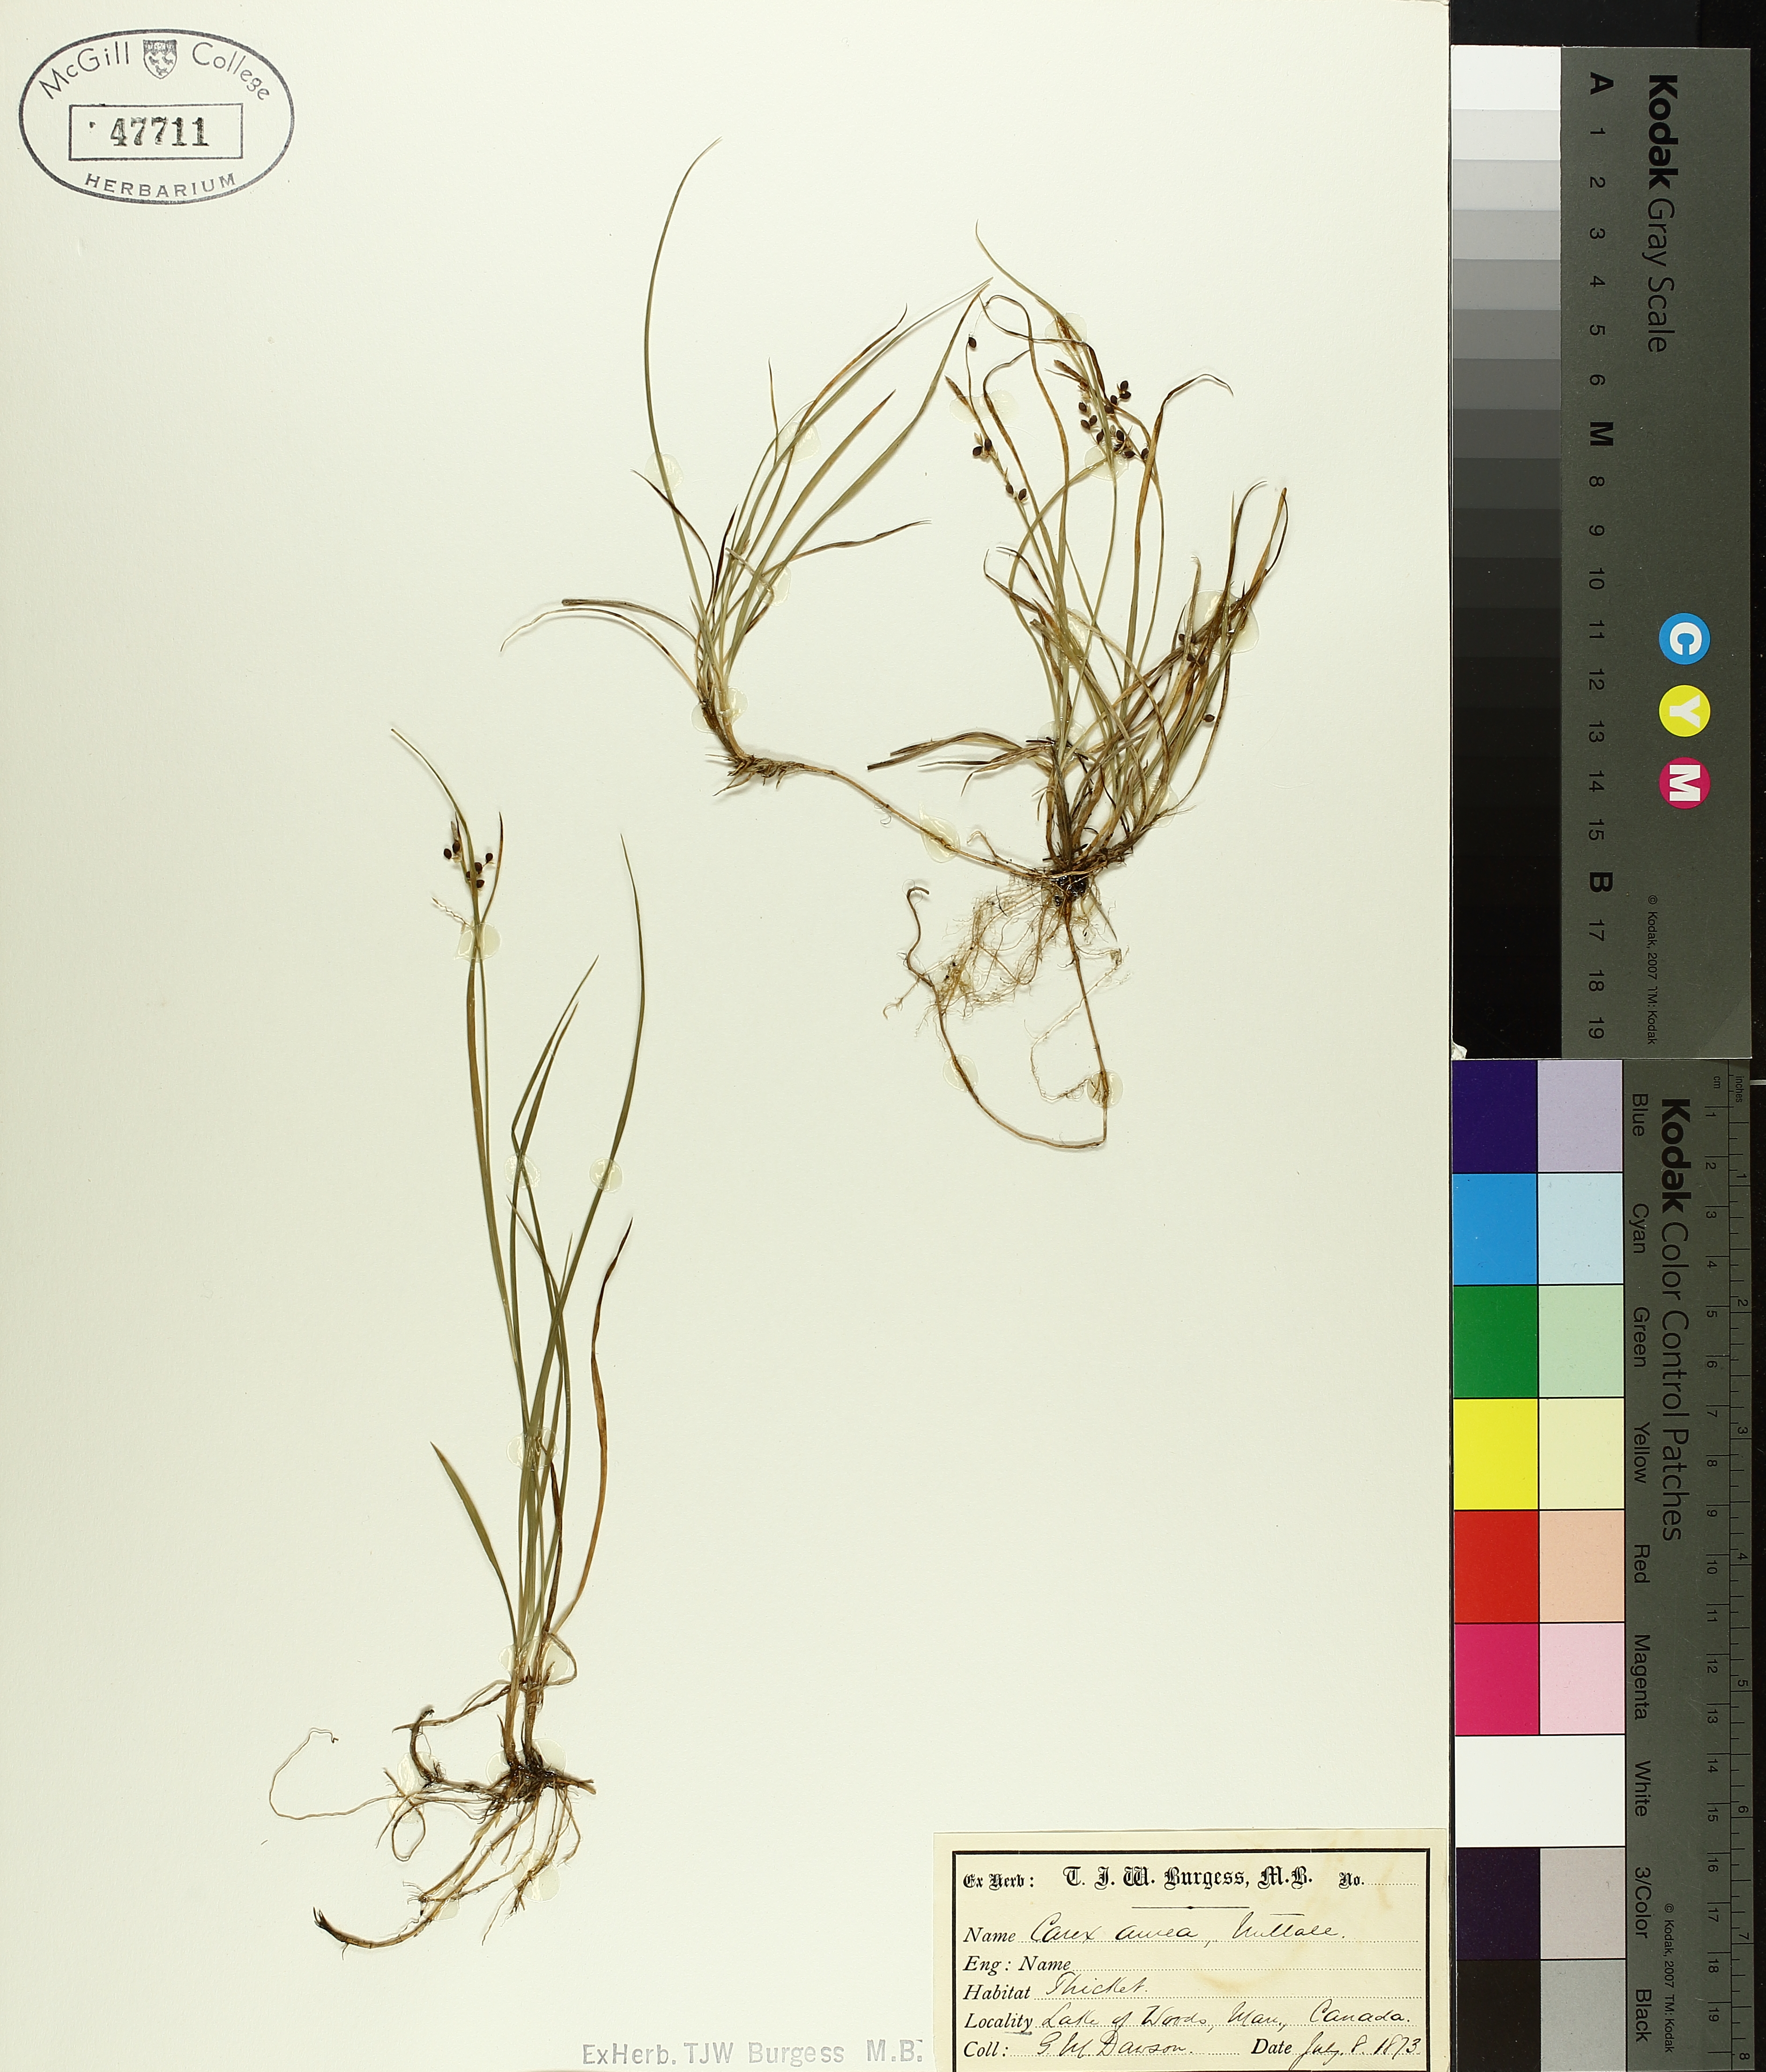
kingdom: Plantae
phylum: Tracheophyta
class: Liliopsida
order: Poales
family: Cyperaceae
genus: Carex
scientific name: Carex aurea
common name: Golden sedge
